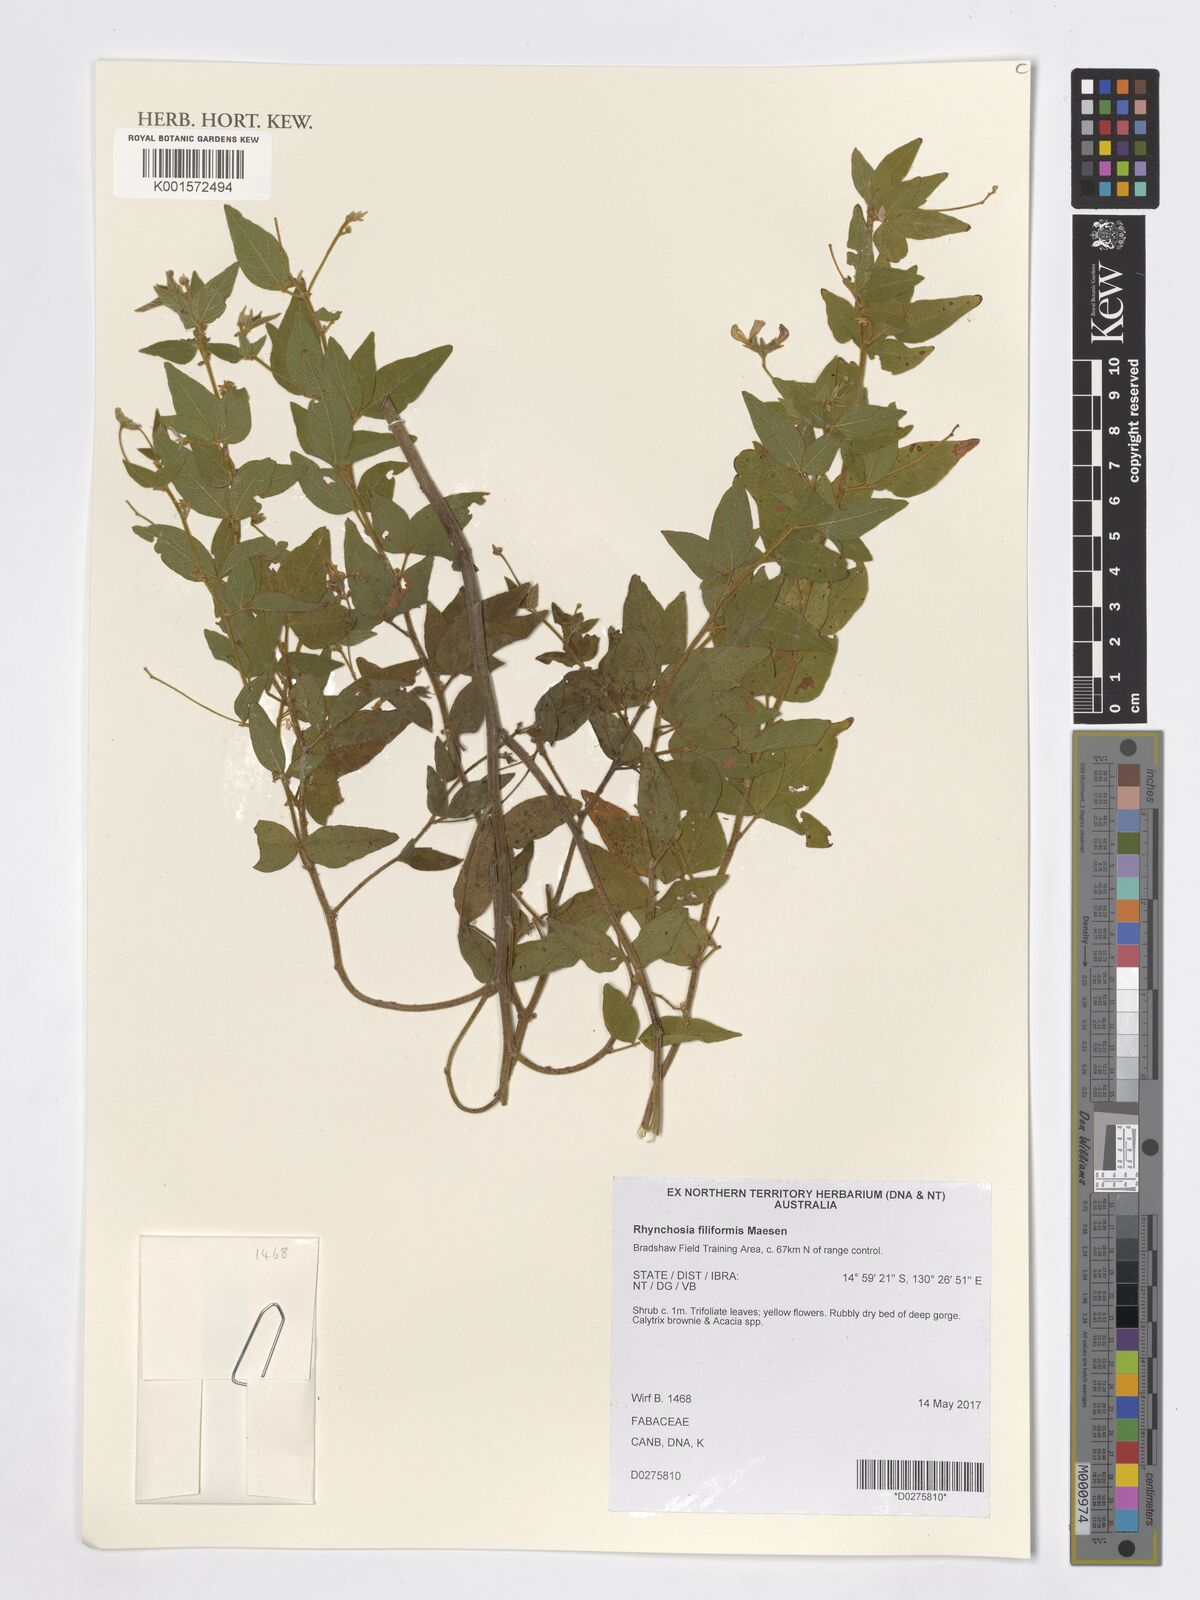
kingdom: Plantae
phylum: Tracheophyta
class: Magnoliopsida
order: Fabales
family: Fabaceae
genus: Rhynchosia
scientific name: Rhynchosia filiformis
